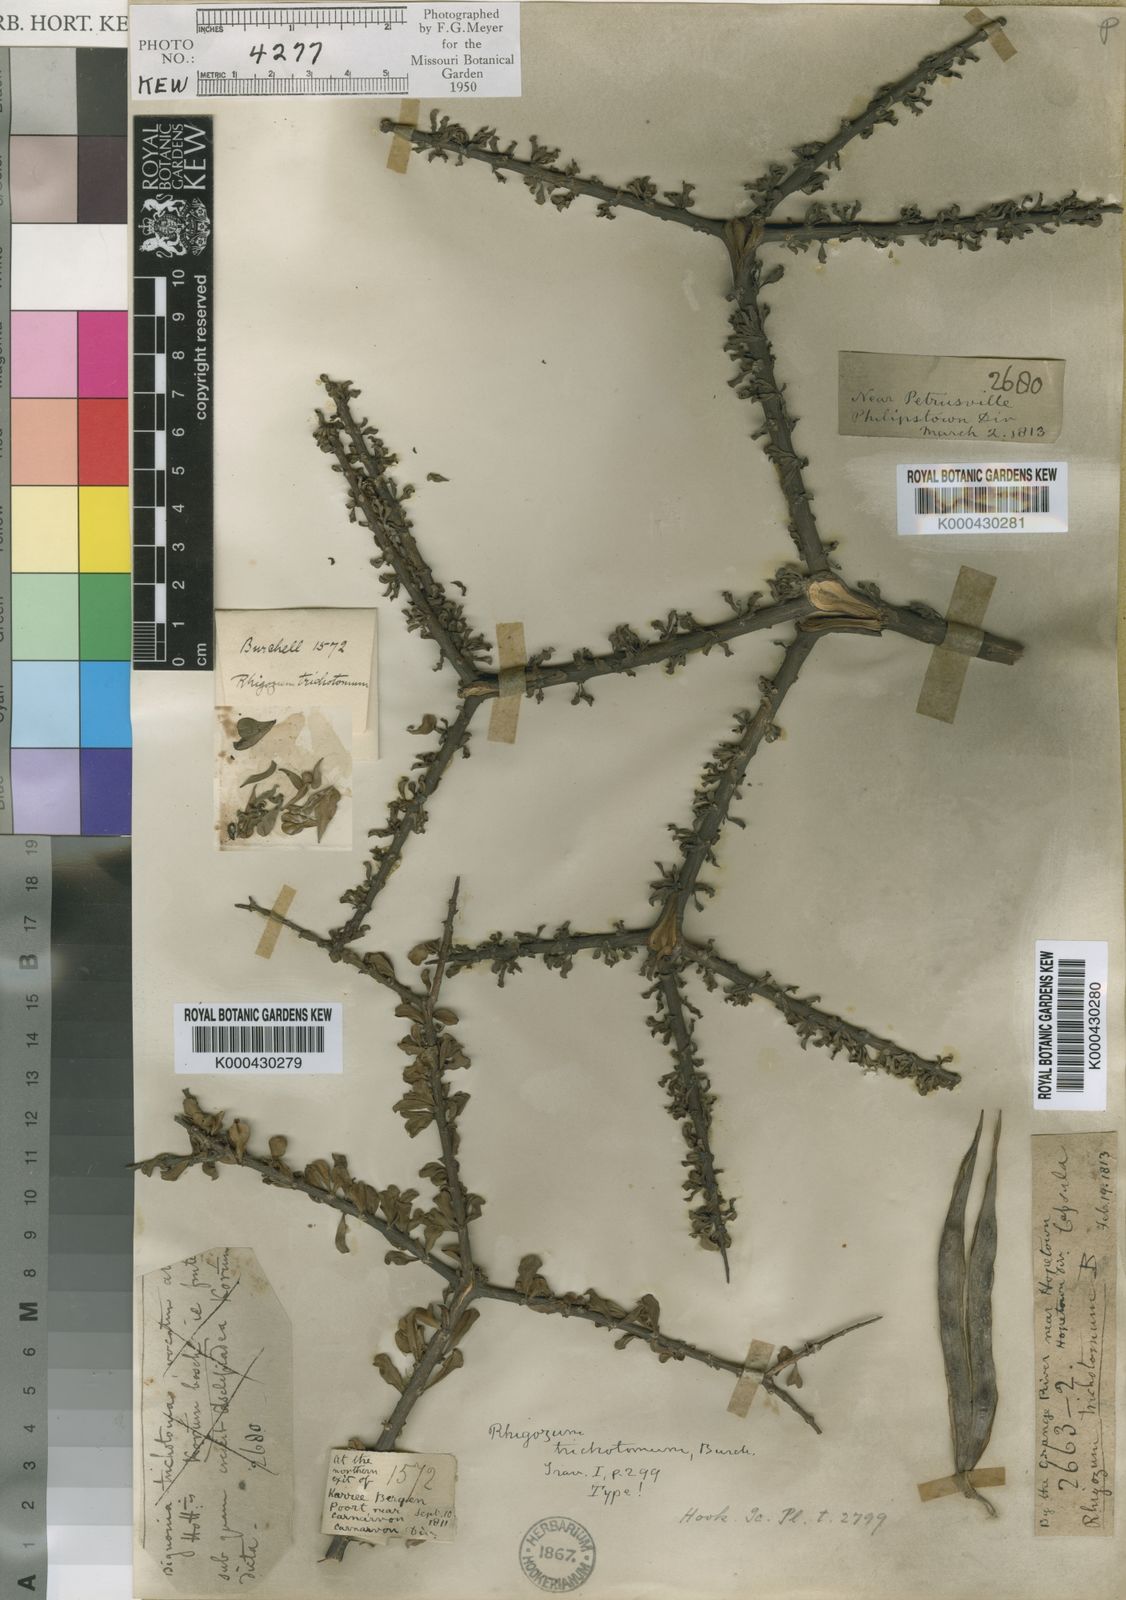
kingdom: Plantae
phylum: Tracheophyta
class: Magnoliopsida
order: Lamiales
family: Bignoniaceae
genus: Rhigozum
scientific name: Rhigozum trichotomum
